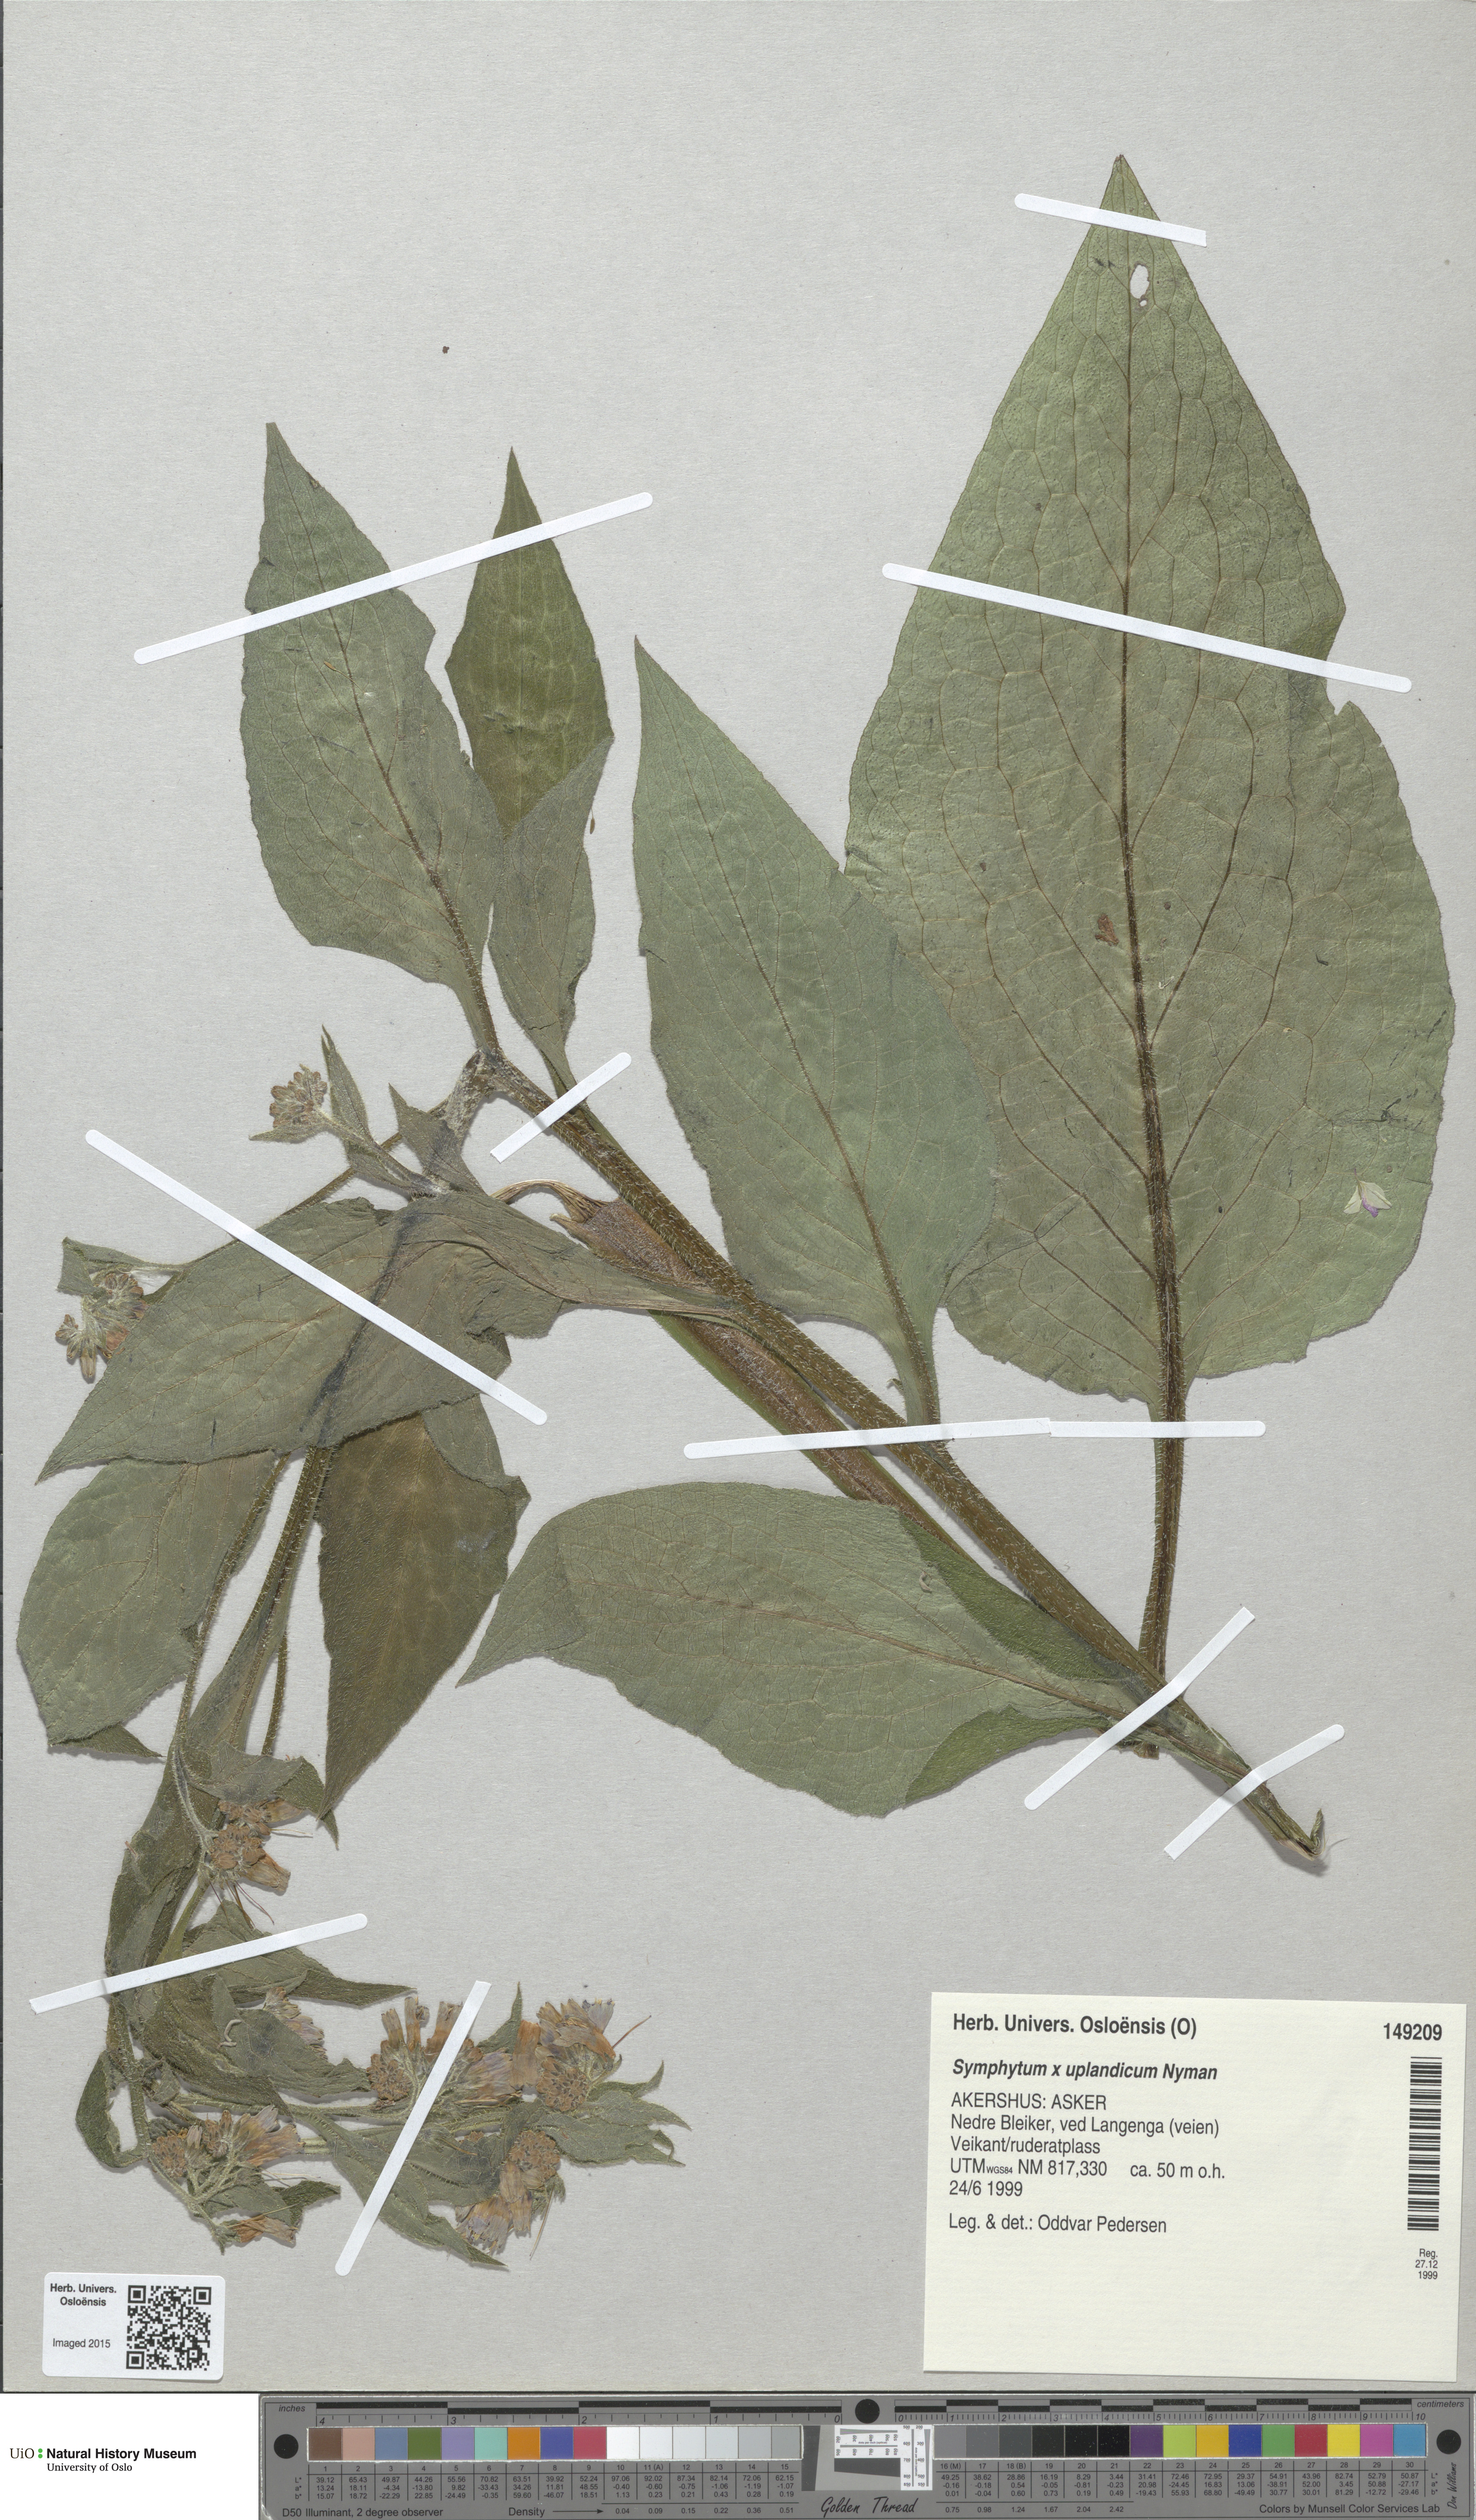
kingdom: Plantae
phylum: Tracheophyta
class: Magnoliopsida
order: Boraginales
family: Boraginaceae
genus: Symphytum
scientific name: Symphytum uplandicum
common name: Russian comfrey
